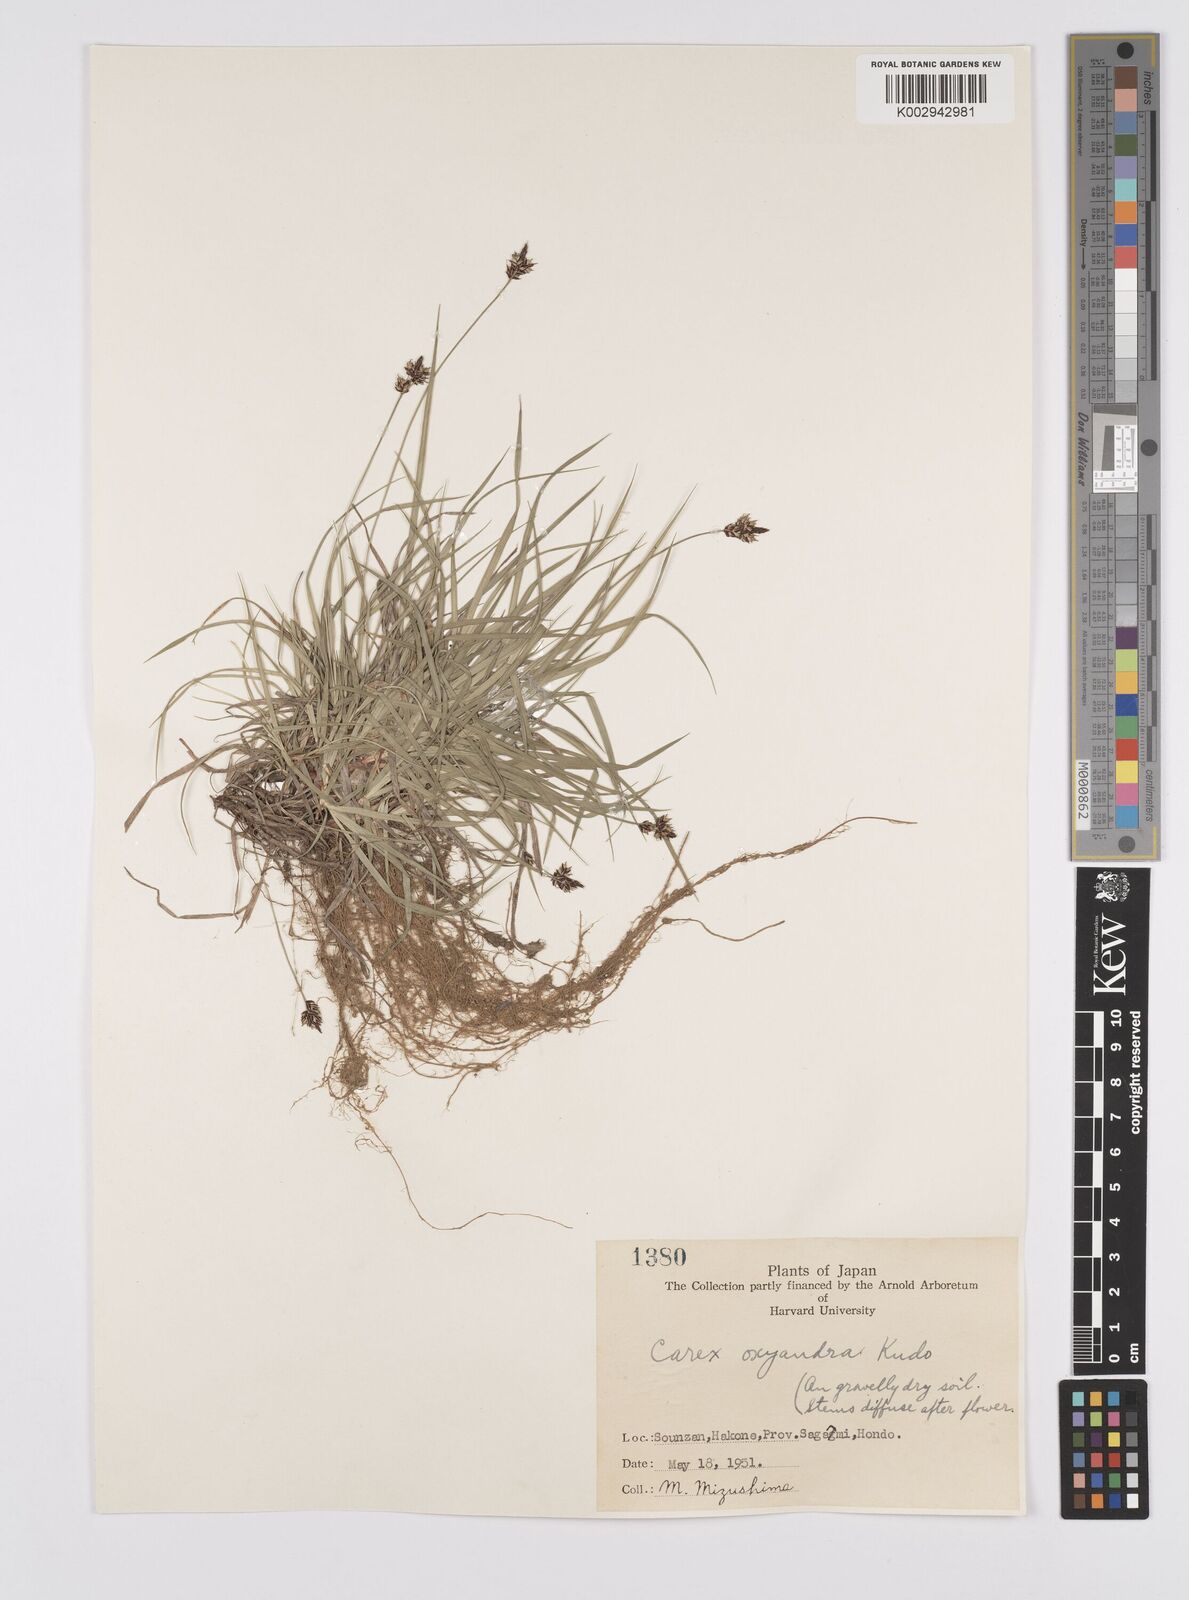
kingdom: Plantae
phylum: Tracheophyta
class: Liliopsida
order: Poales
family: Cyperaceae
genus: Carex
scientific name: Carex oxyandra
